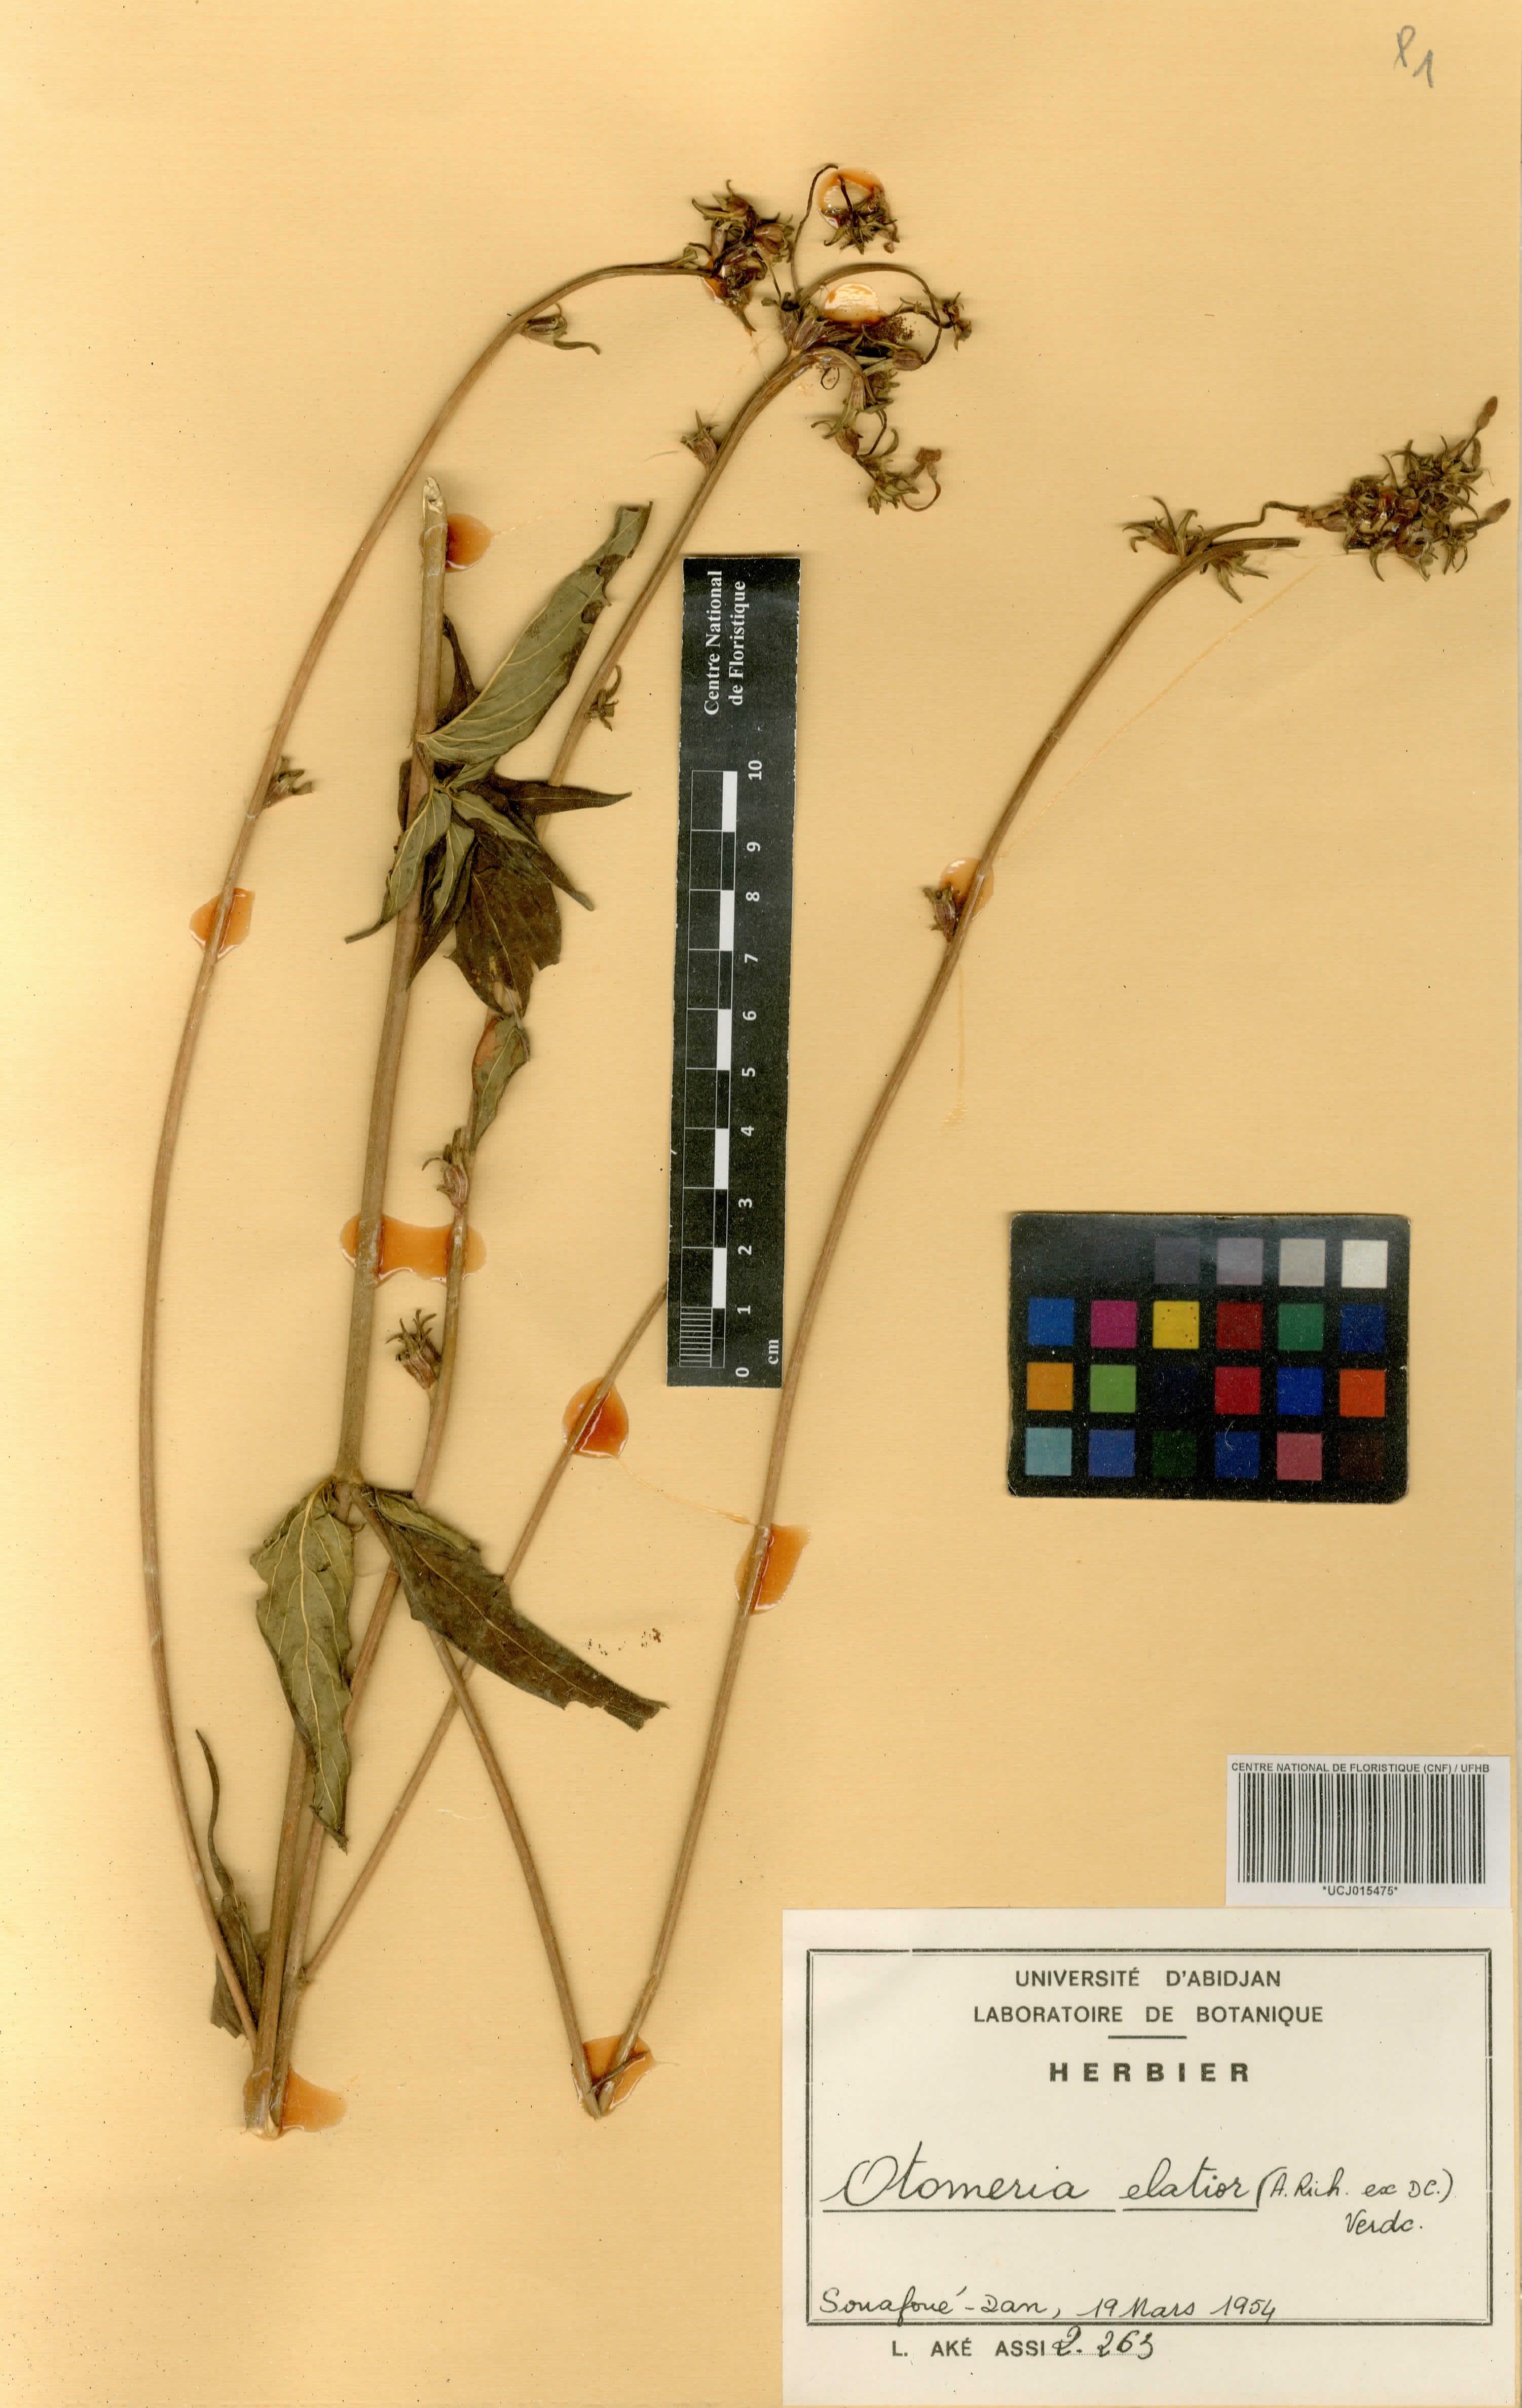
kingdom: Plantae
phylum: Tracheophyta
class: Magnoliopsida
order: Gentianales
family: Rubiaceae
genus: Otomeria
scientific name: Otomeria elatior
